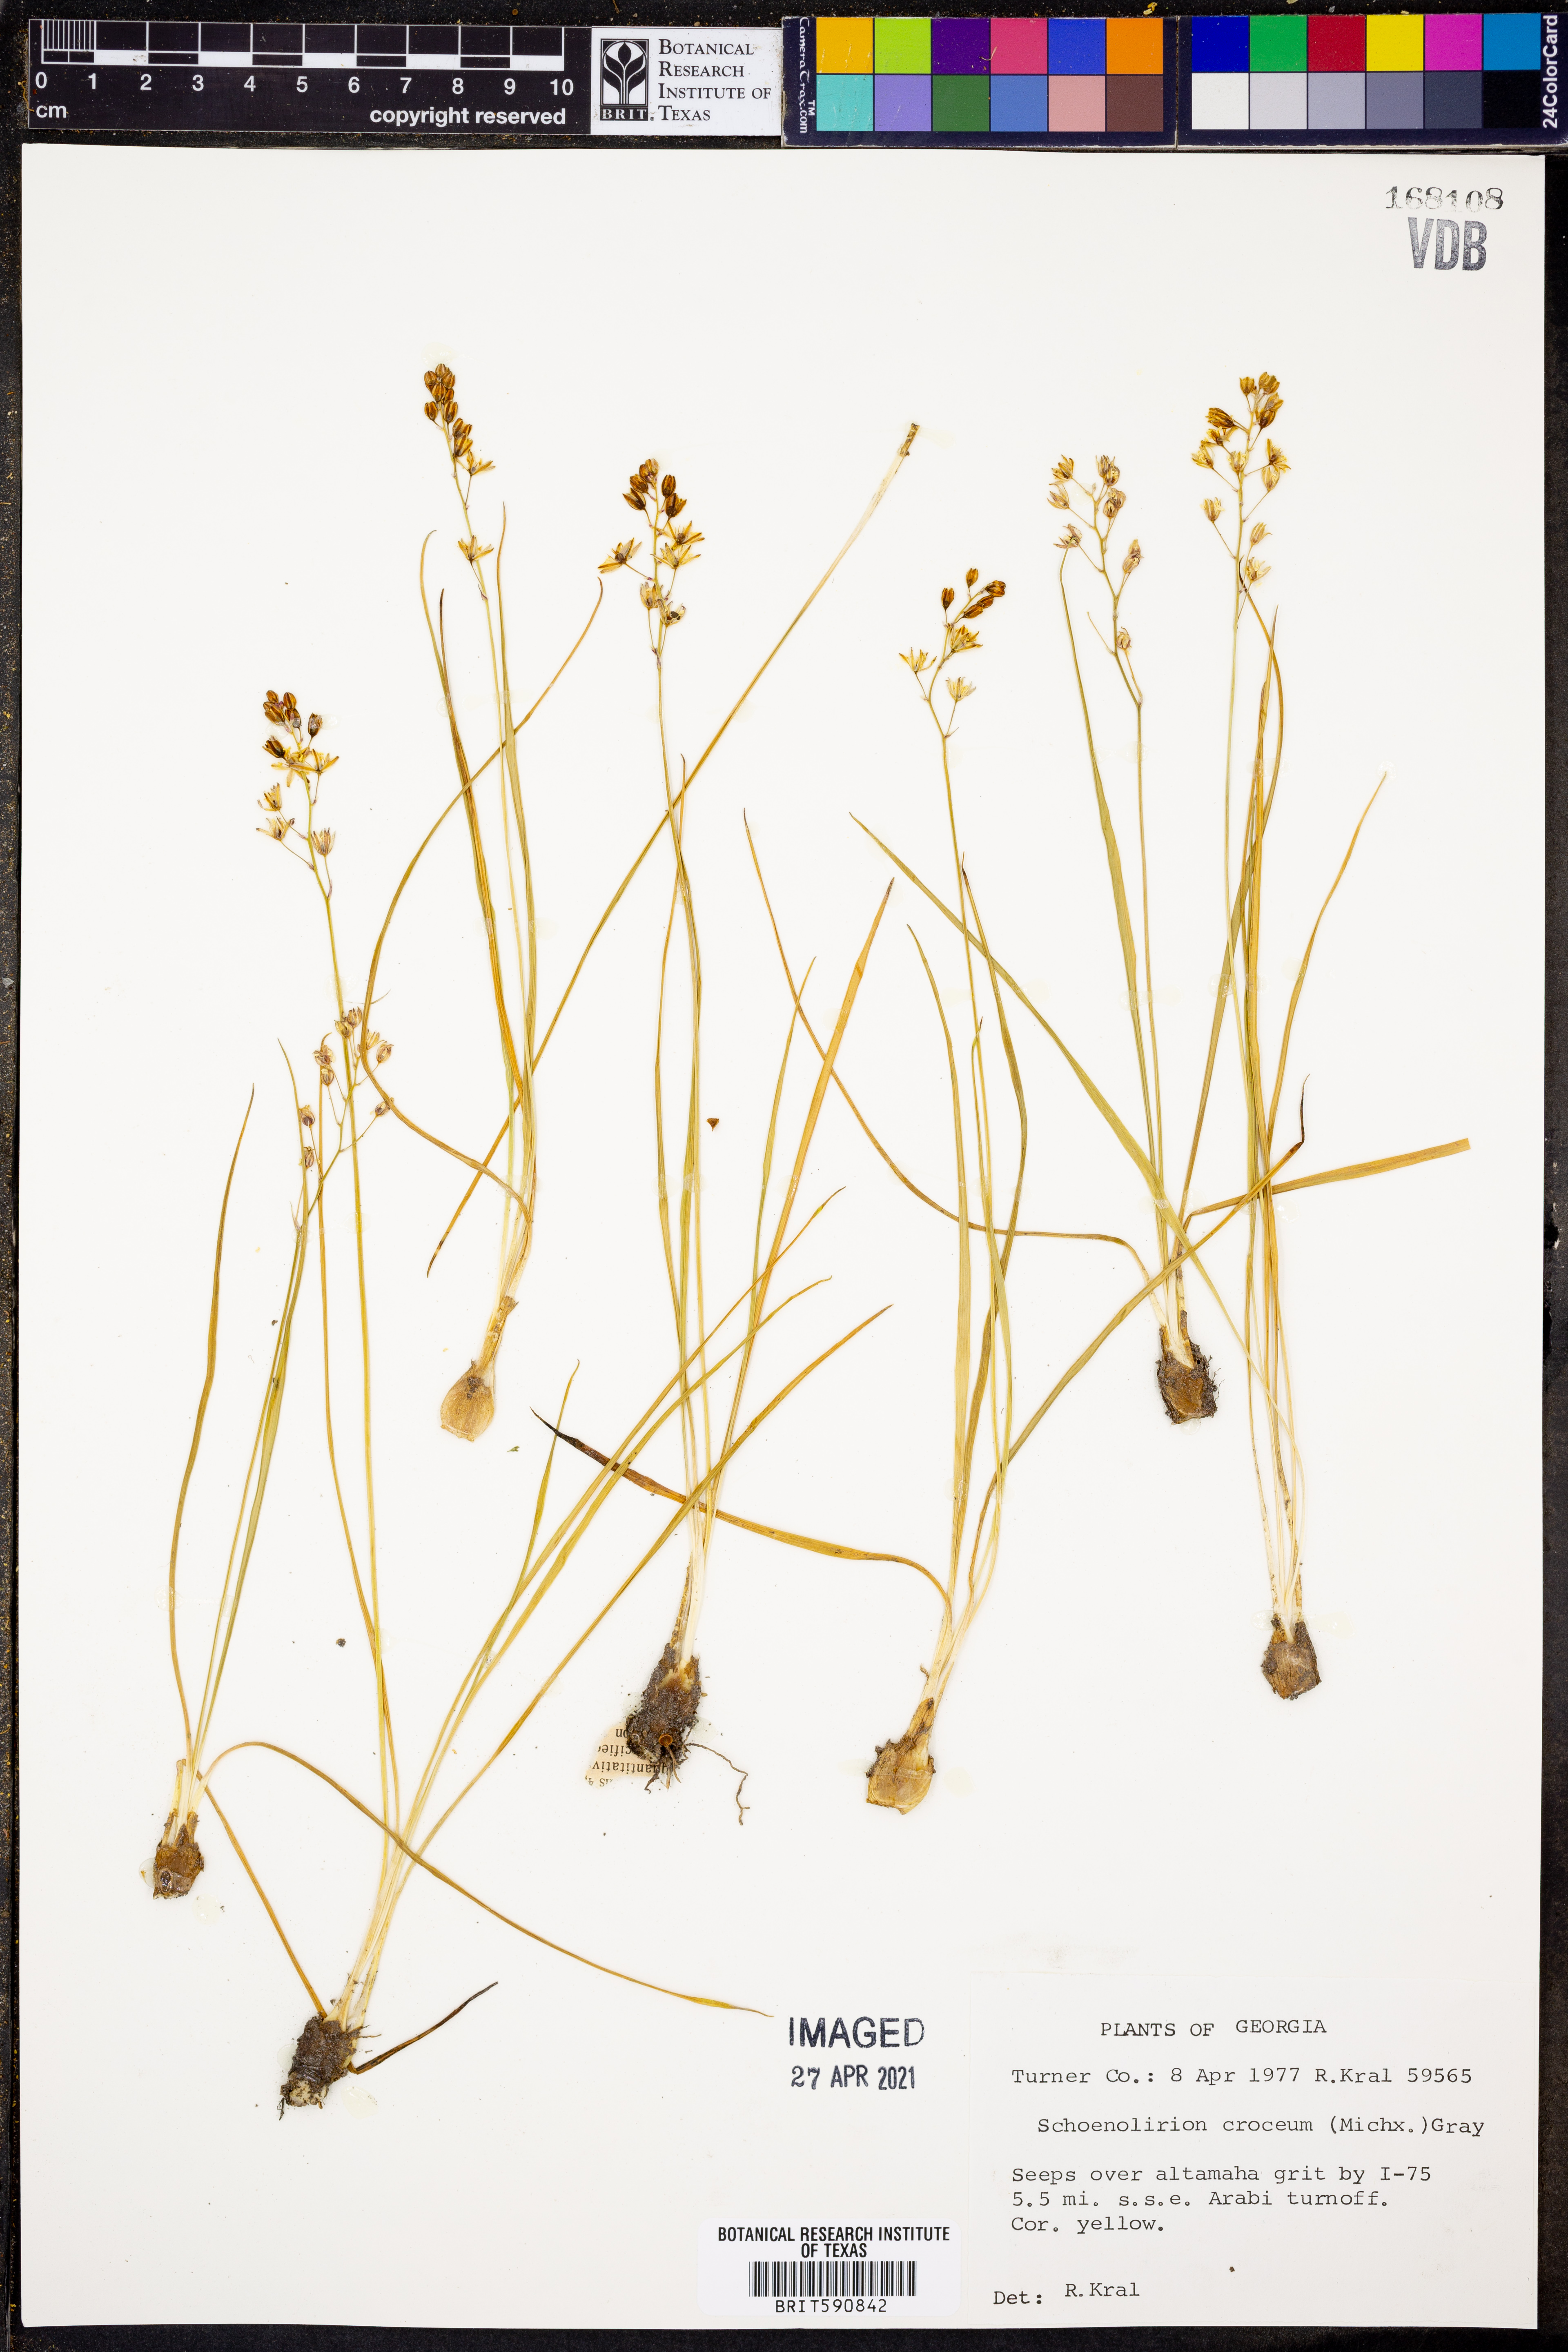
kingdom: Plantae
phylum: Tracheophyta
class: Liliopsida
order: Asparagales
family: Asparagaceae
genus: Schoenolirion
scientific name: Schoenolirion croceum
